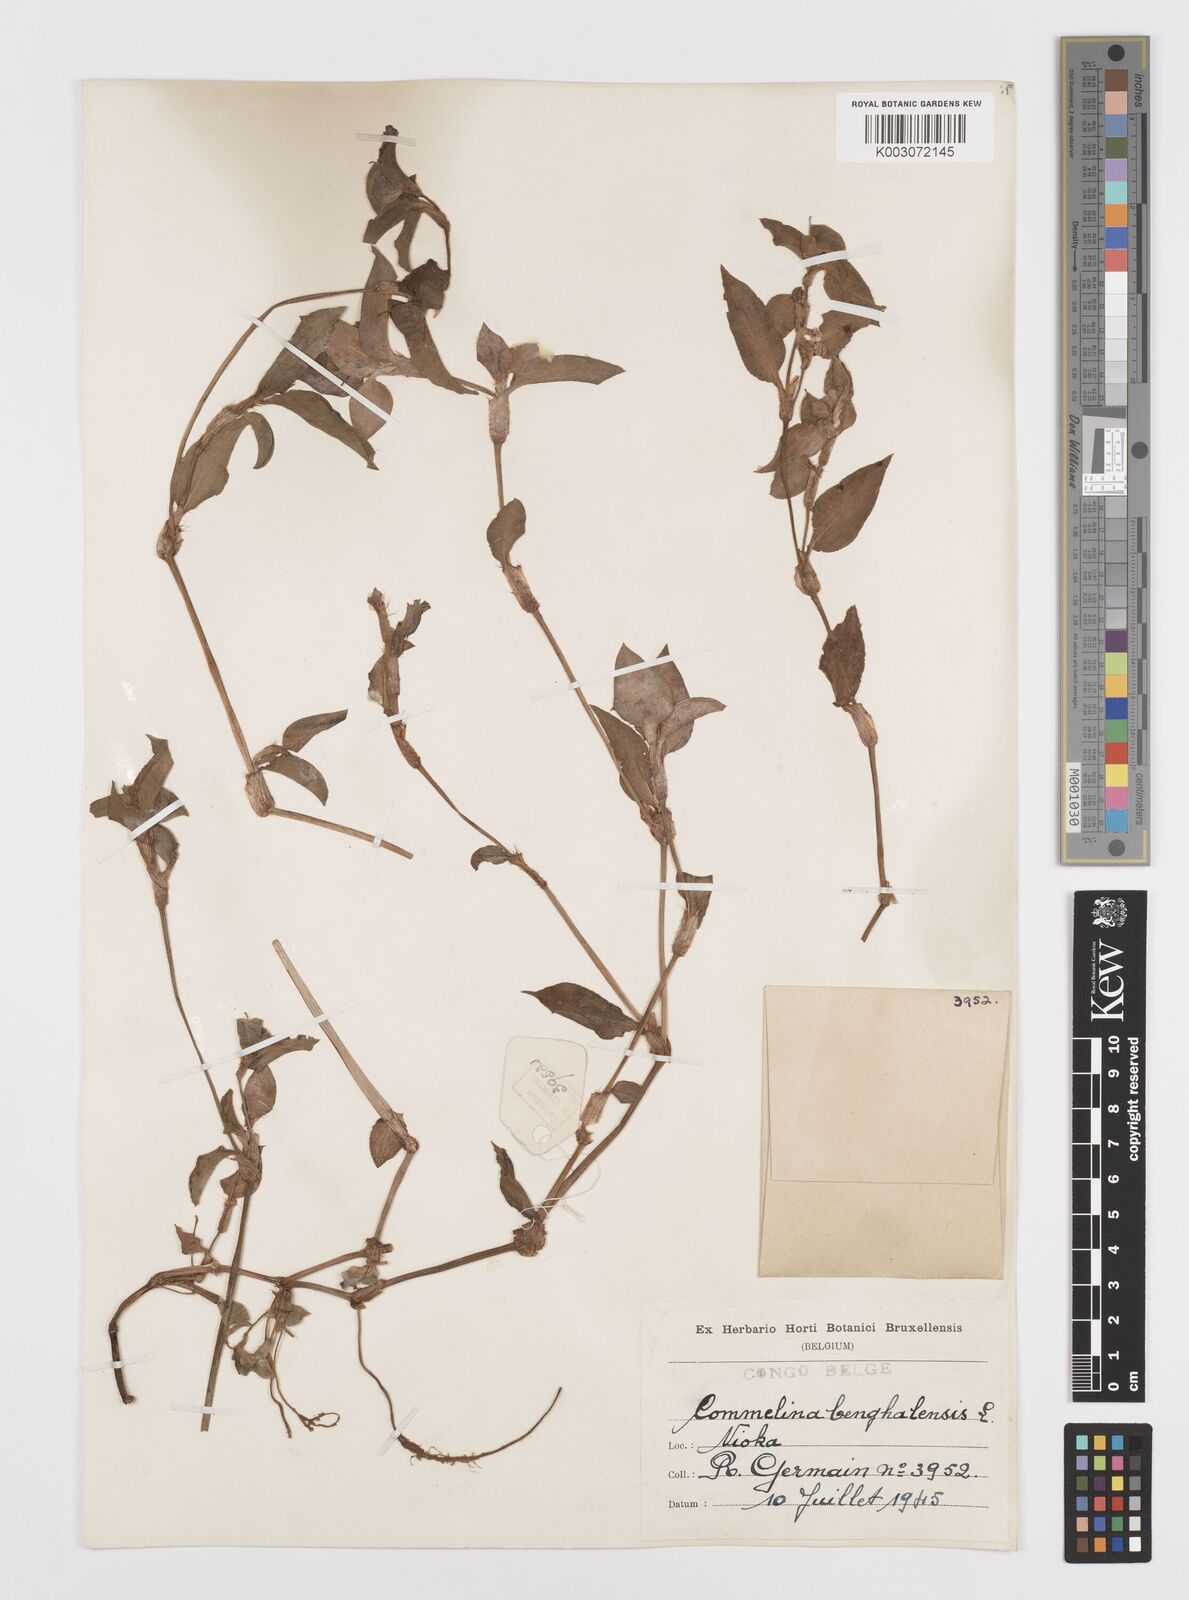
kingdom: Plantae
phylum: Tracheophyta
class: Liliopsida
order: Commelinales
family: Commelinaceae
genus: Commelina
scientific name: Commelina benghalensis
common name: Jio
